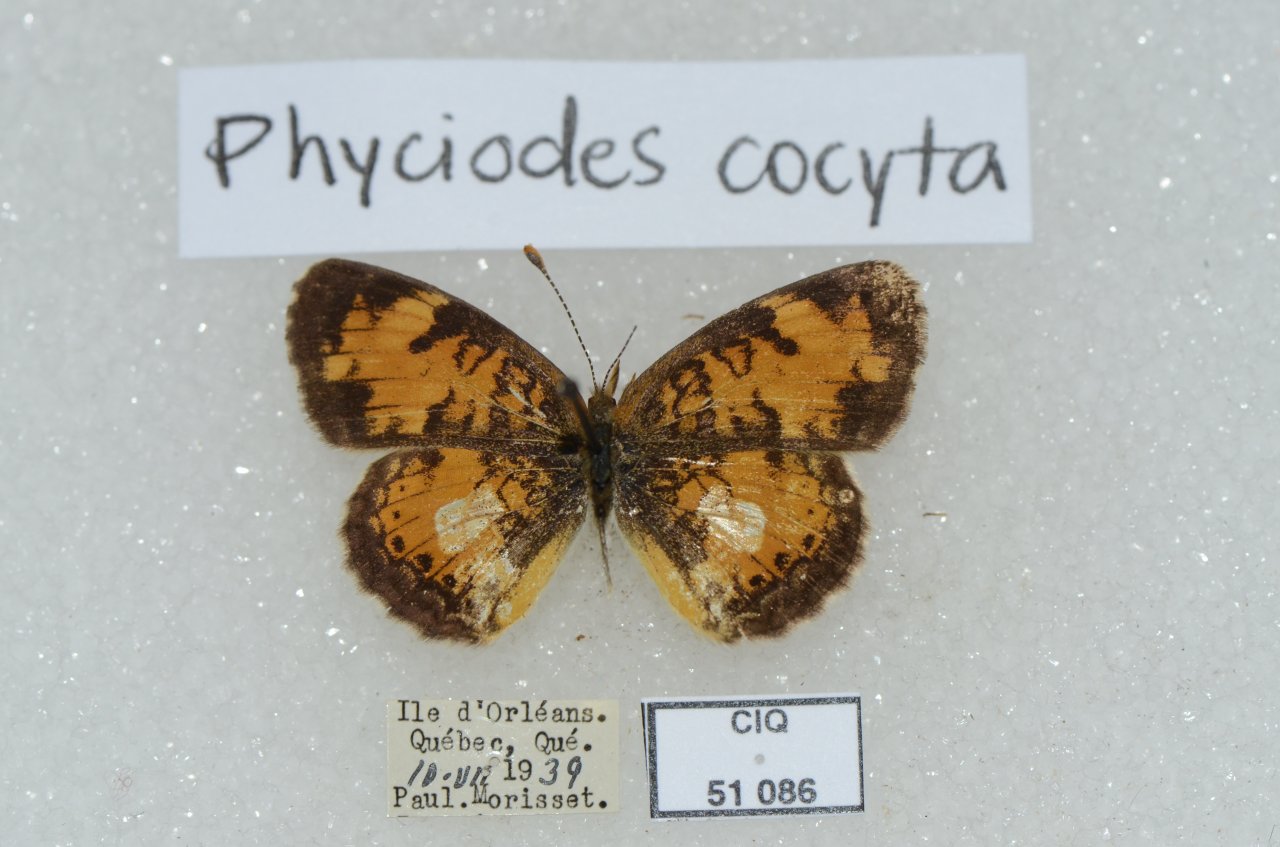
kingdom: Animalia
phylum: Arthropoda
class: Insecta
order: Lepidoptera
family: Nymphalidae
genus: Phyciodes
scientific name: Phyciodes tharos
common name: Northern Crescent
